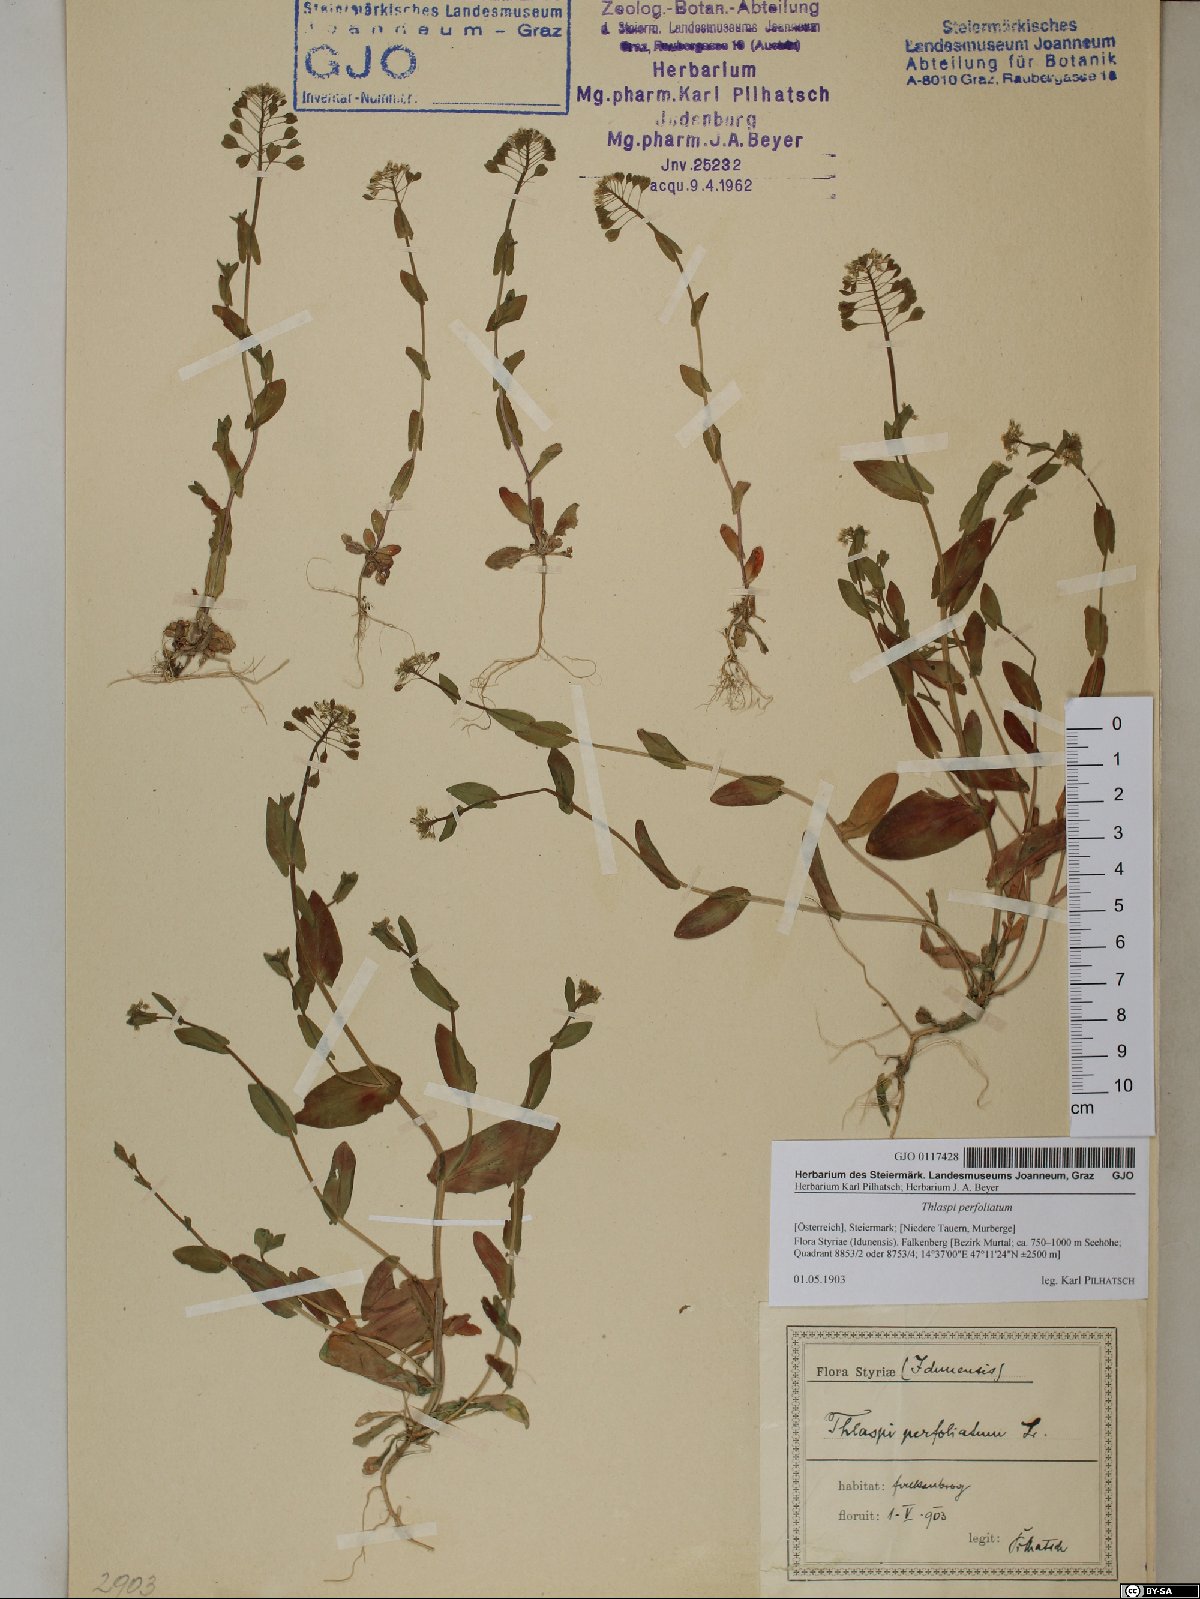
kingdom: Plantae
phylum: Tracheophyta
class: Magnoliopsida
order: Brassicales
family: Brassicaceae
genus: Noccaea
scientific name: Noccaea perfoliata
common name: Perfoliate pennycress
